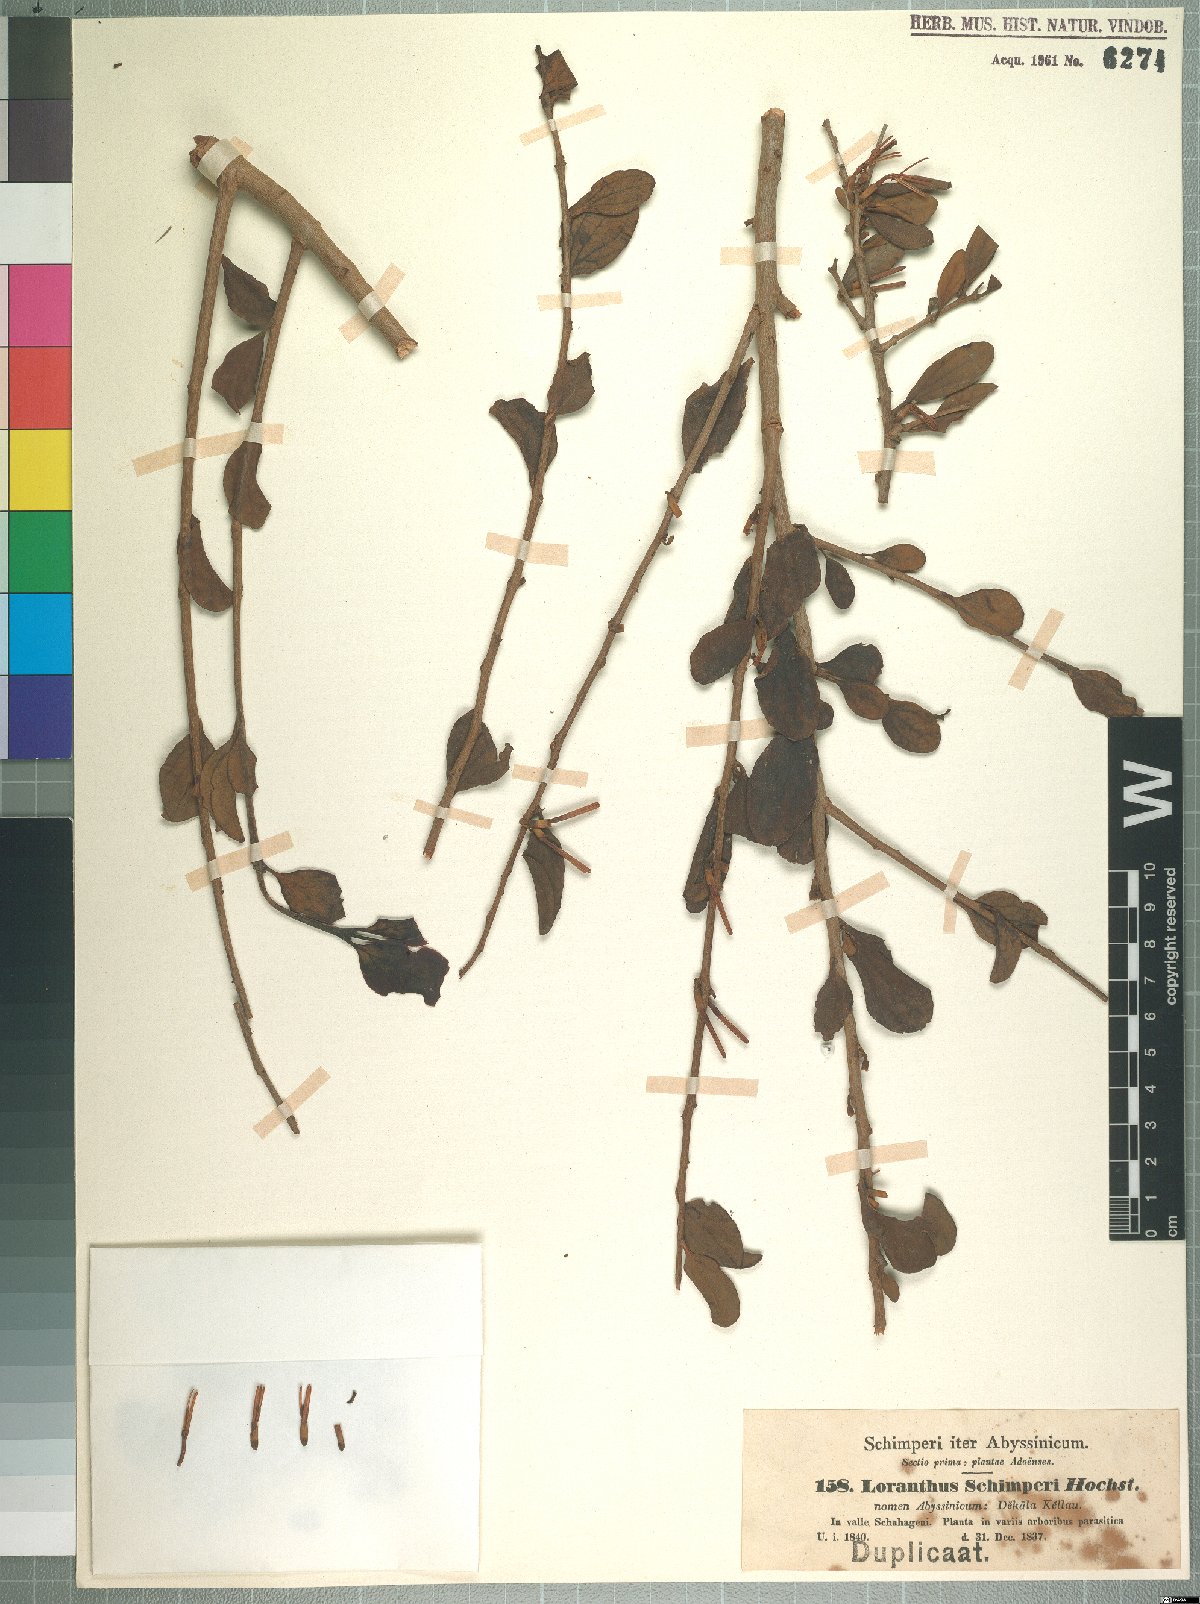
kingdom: Plantae
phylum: Tracheophyta
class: Magnoliopsida
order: Santalales
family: Loranthaceae
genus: Loranthella
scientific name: Loranthella
